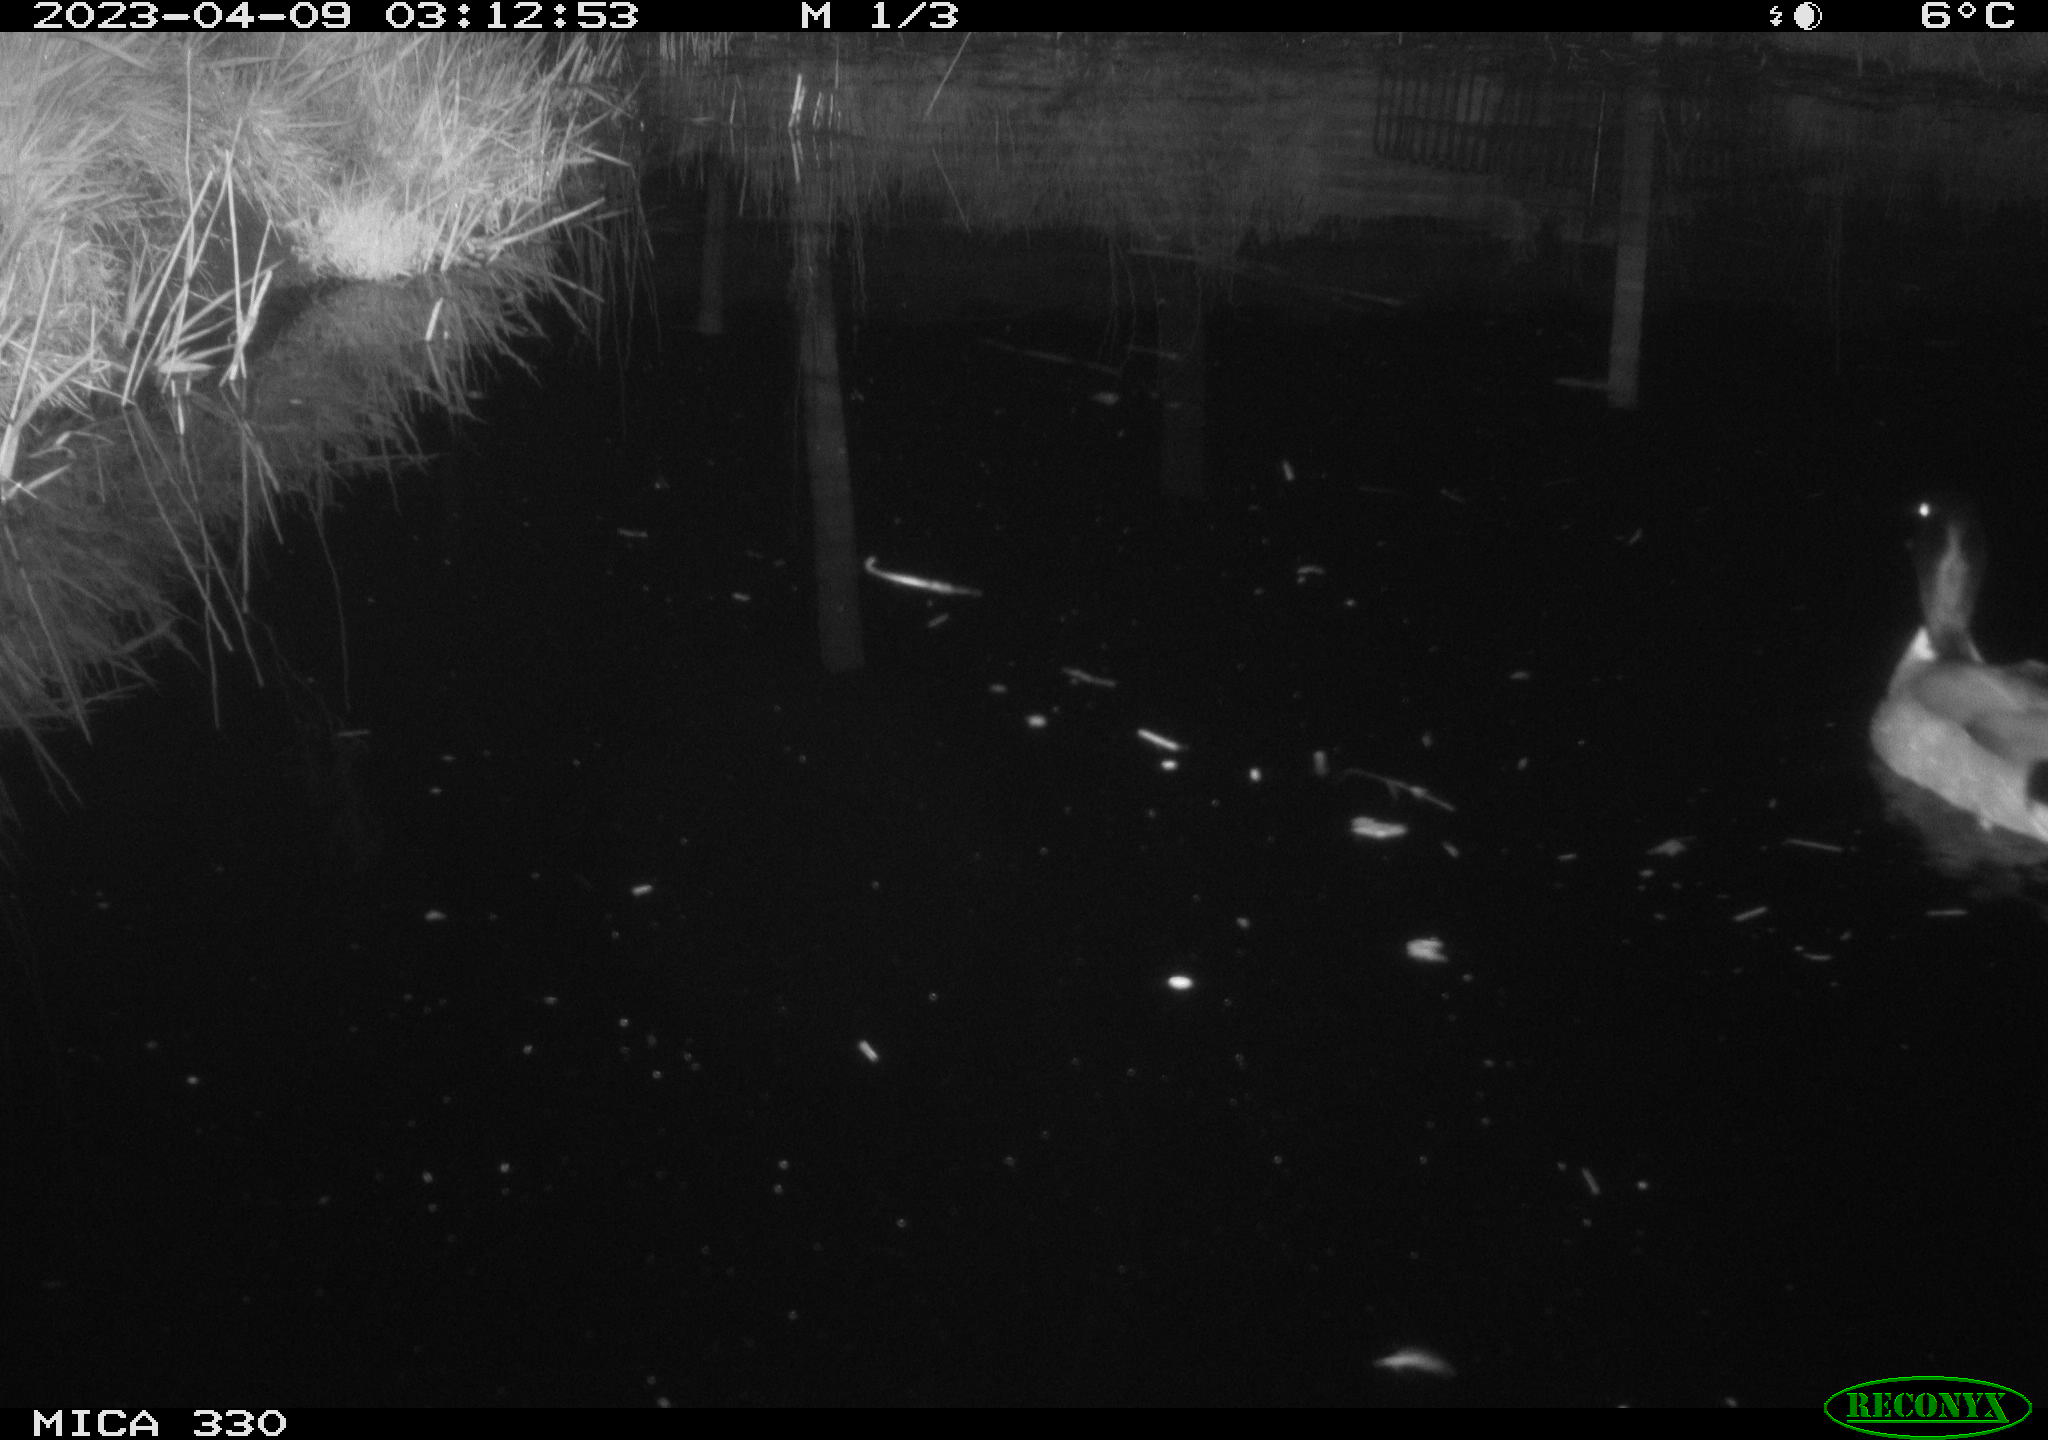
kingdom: Animalia
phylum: Chordata
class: Aves
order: Anseriformes
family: Anatidae
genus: Anas
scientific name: Anas
